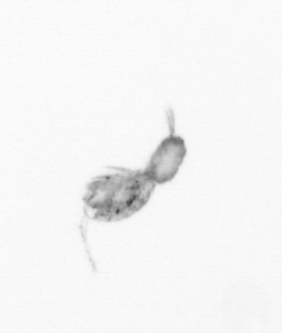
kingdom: Animalia
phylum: Arthropoda
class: Copepoda
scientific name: Copepoda
